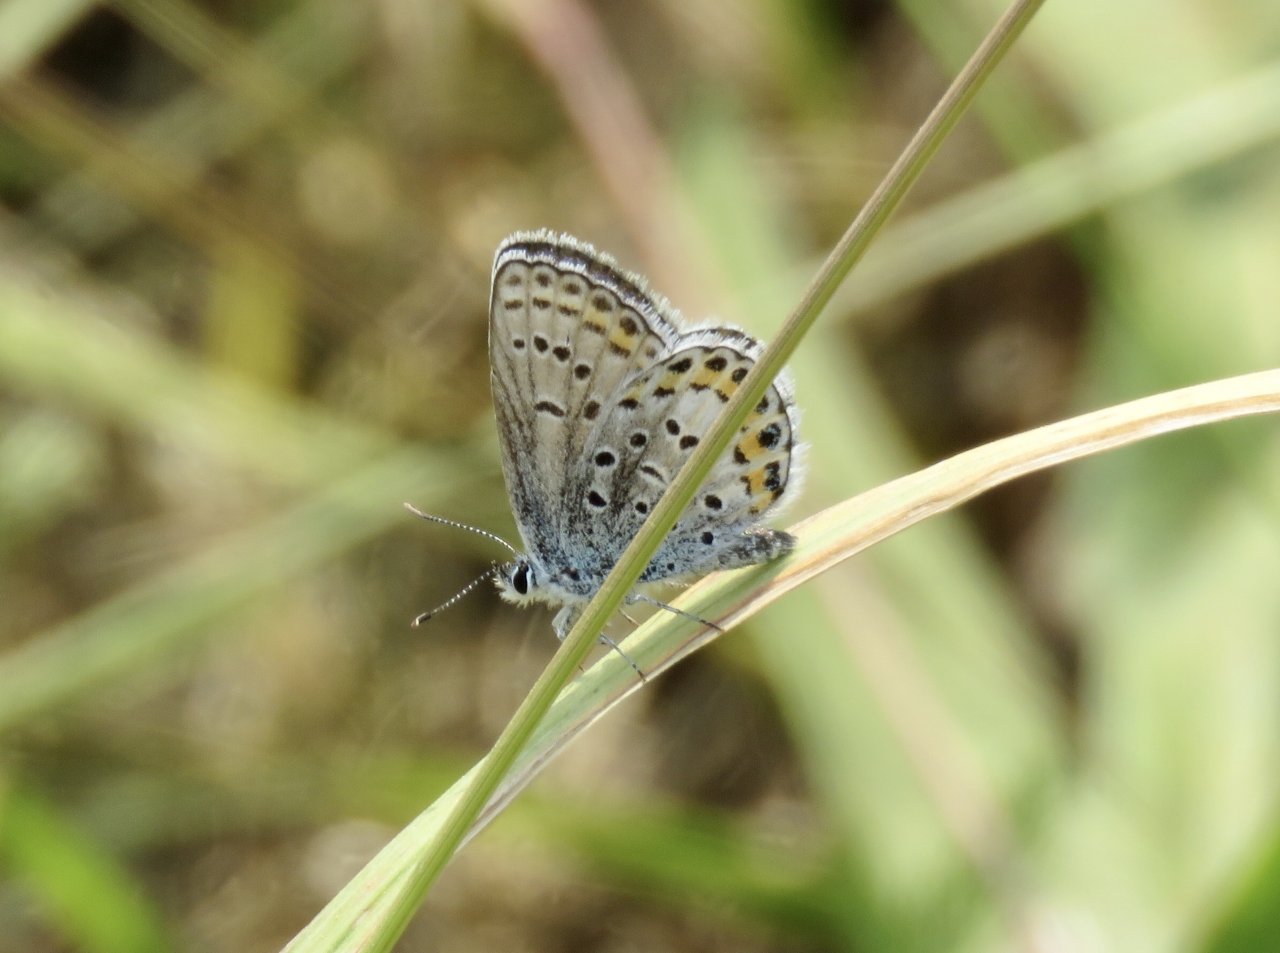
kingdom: Animalia
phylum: Arthropoda
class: Insecta
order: Lepidoptera
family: Lycaenidae
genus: Lycaeides
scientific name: Lycaeides melissa
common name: Melissa Blue
